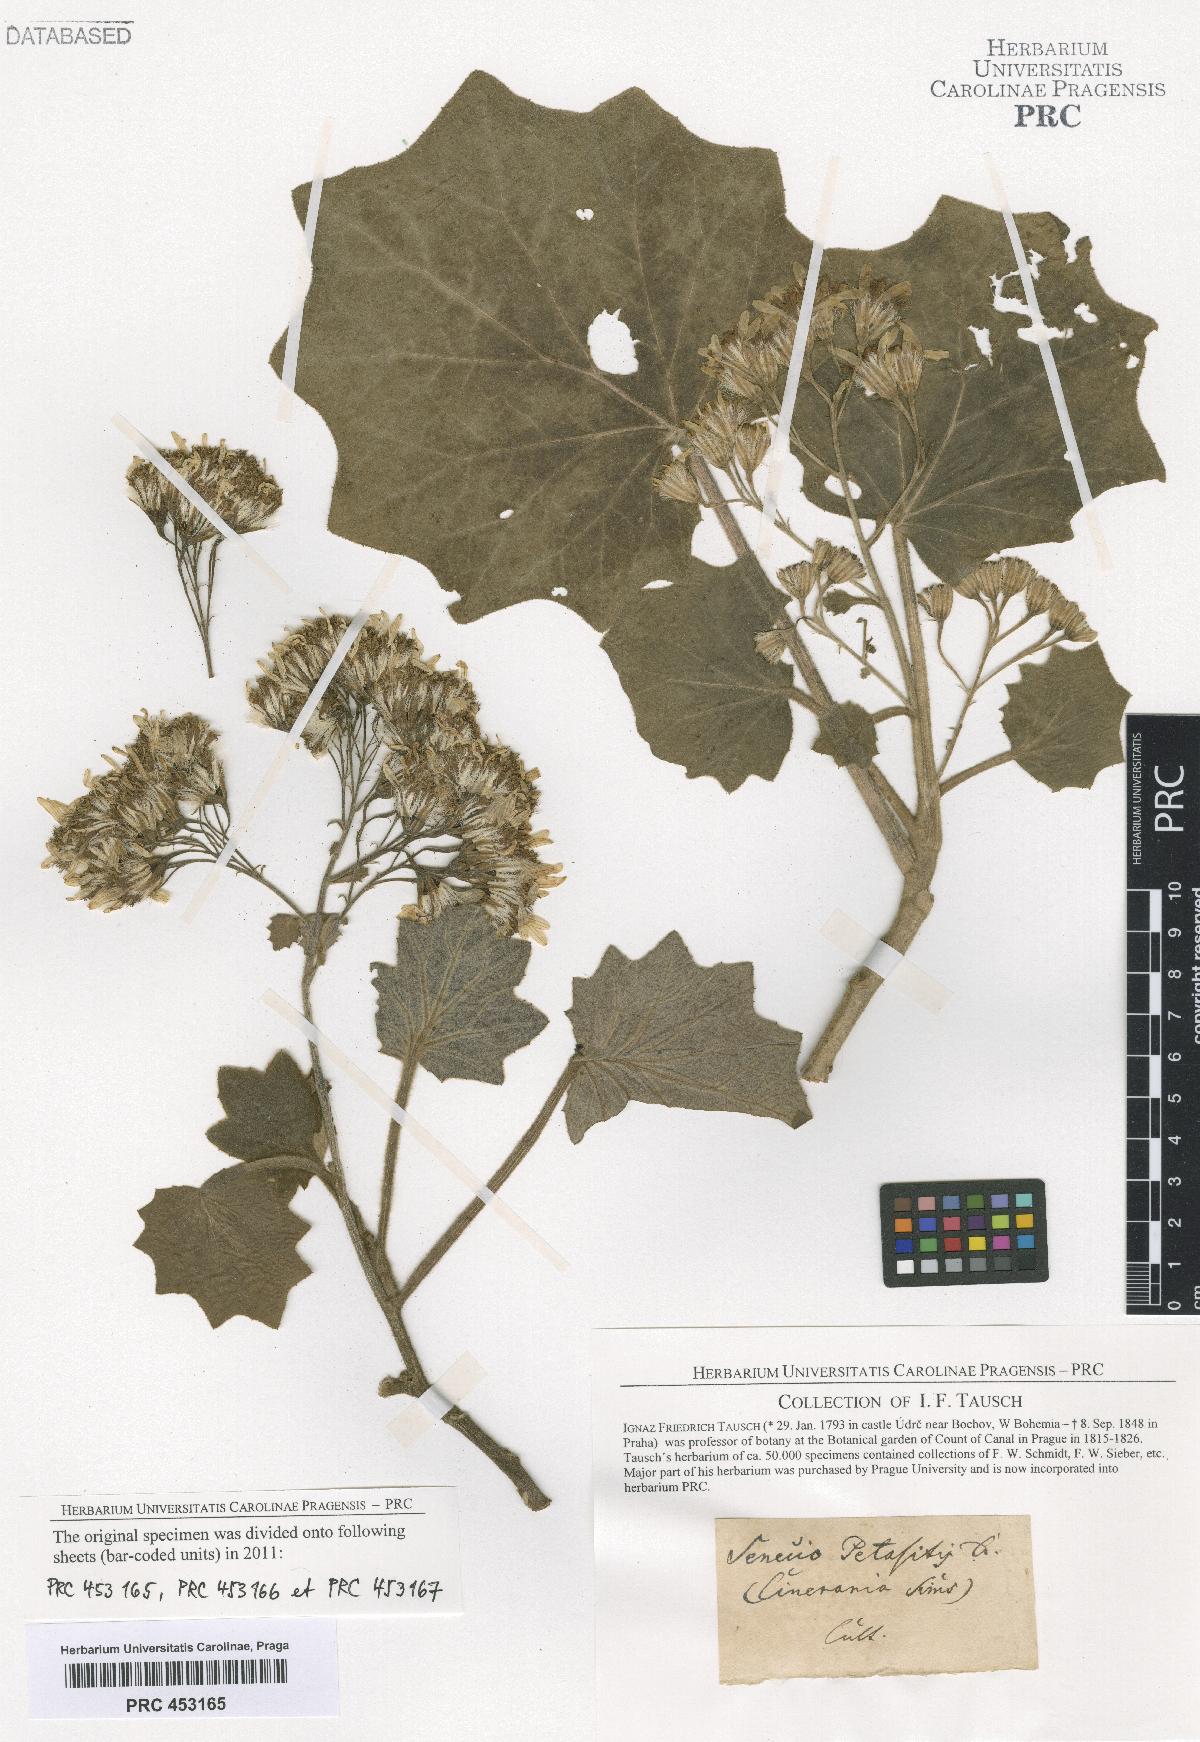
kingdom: Plantae
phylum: Tracheophyta
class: Magnoliopsida
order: Asterales
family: Asteraceae
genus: Roldana
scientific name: Roldana petasitis
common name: California-geranium
